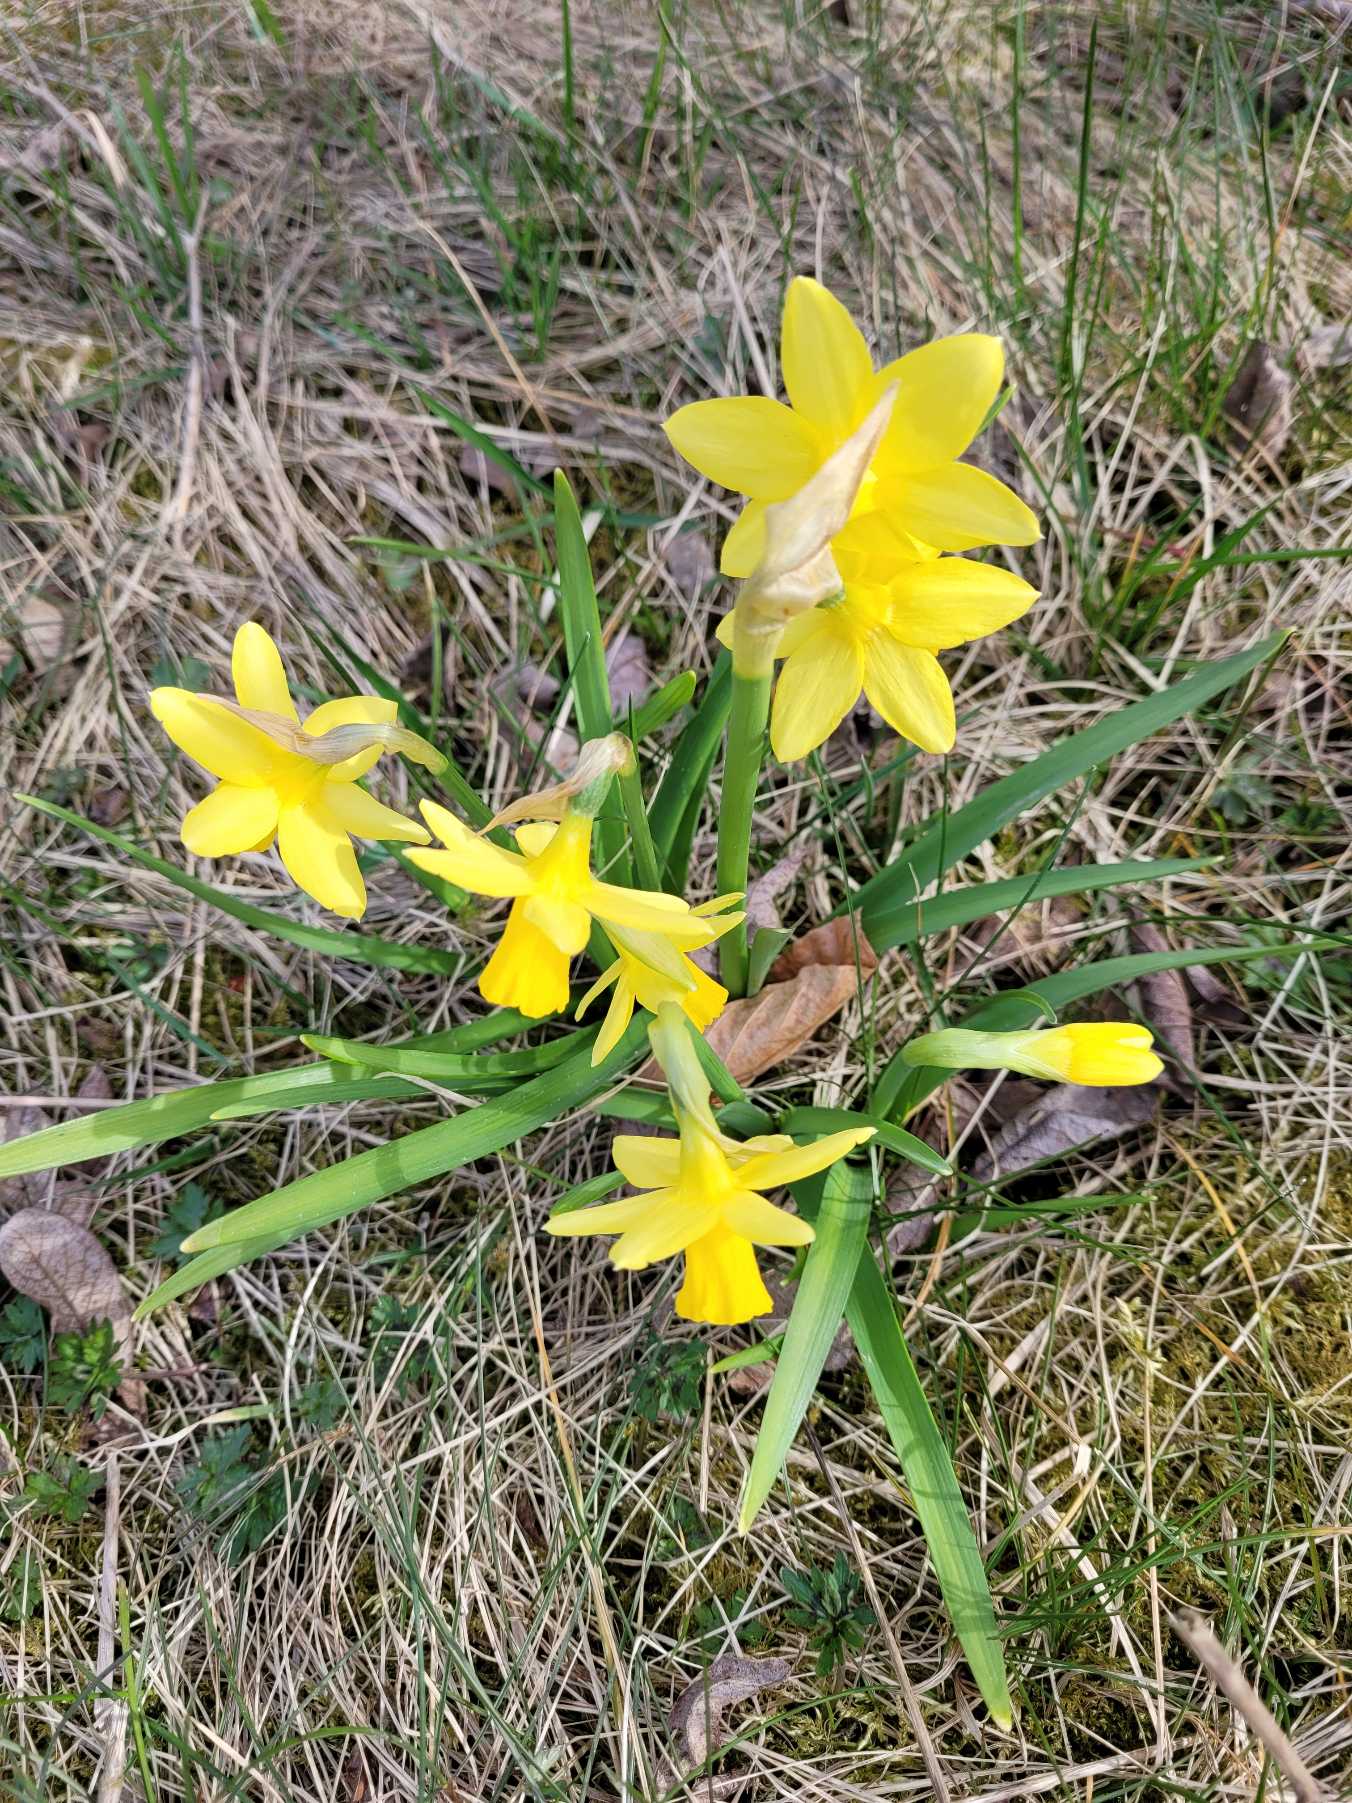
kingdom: Plantae
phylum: Tracheophyta
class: Liliopsida
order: Asparagales
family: Amaryllidaceae
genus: Narcissus
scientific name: Narcissus cyclazetta
